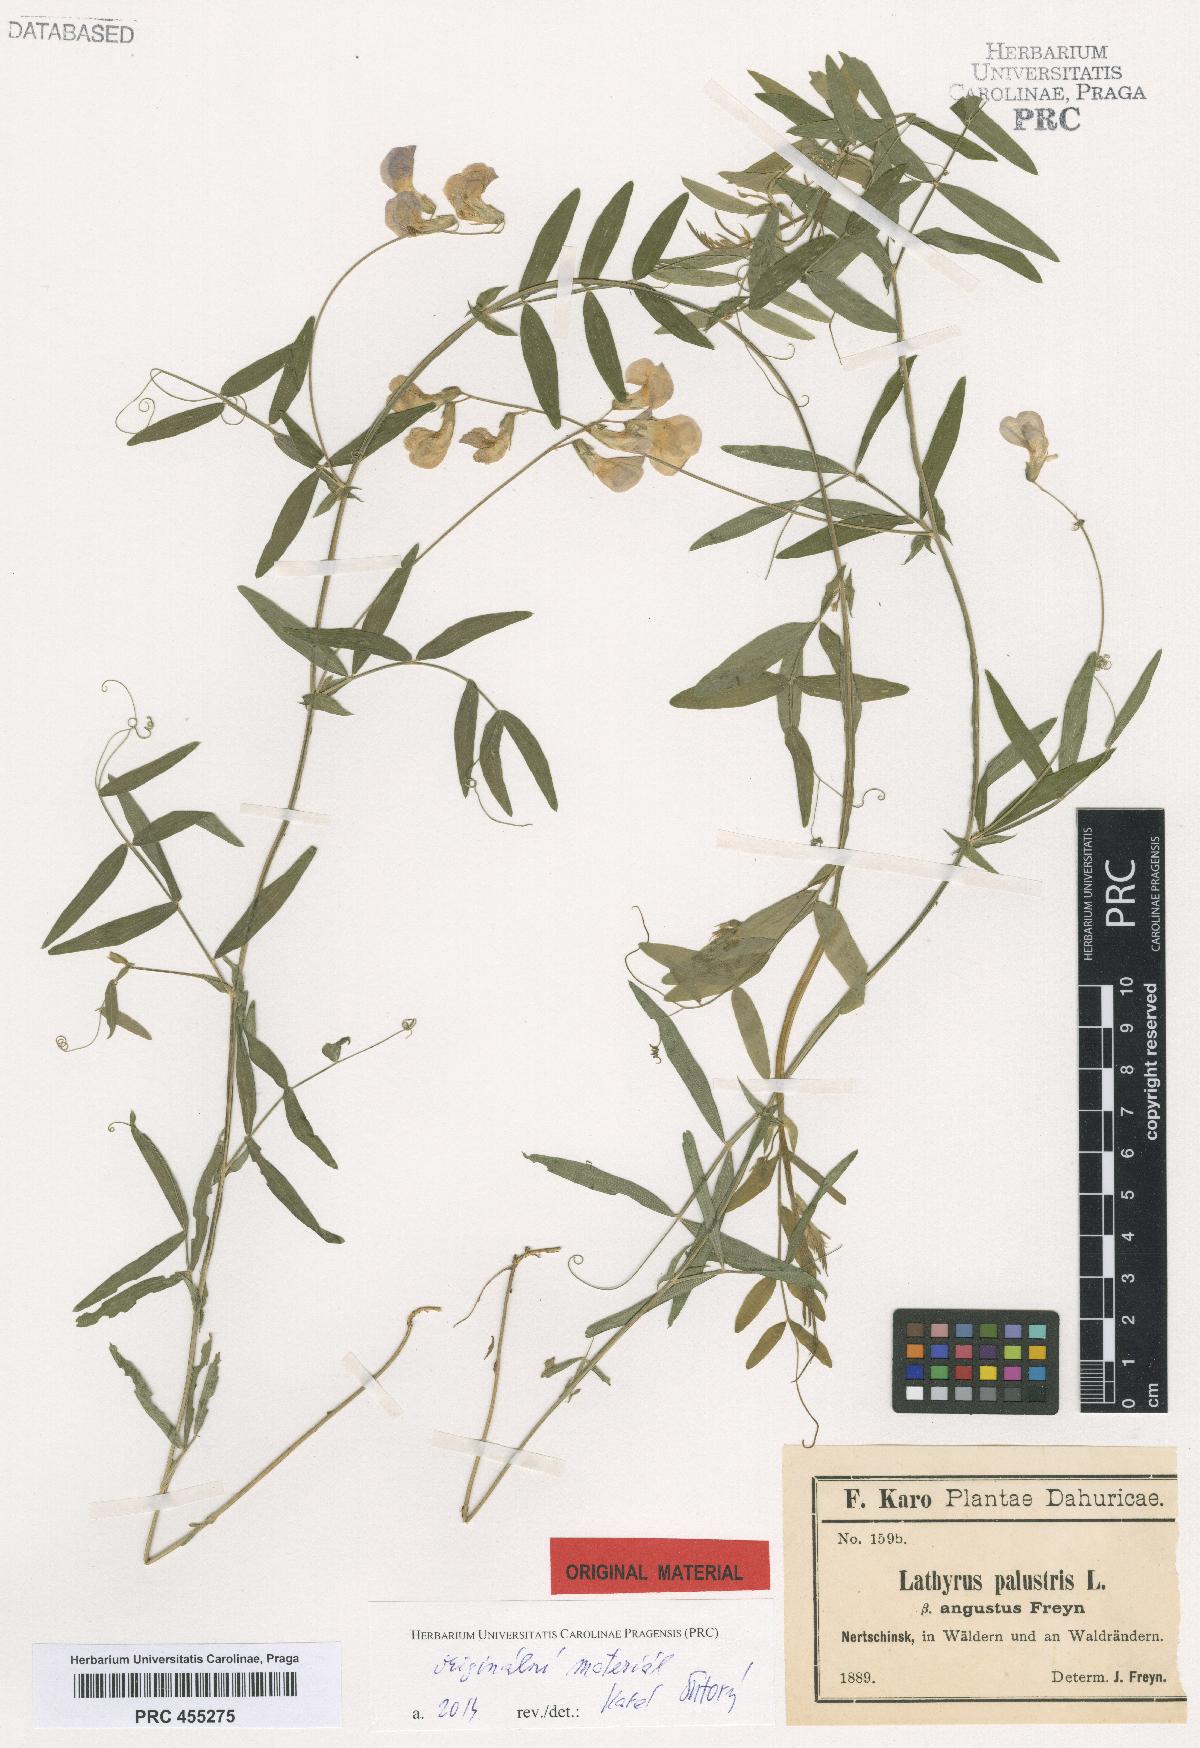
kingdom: Plantae
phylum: Tracheophyta
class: Magnoliopsida
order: Fabales
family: Fabaceae
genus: Lathyrus
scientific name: Lathyrus palustris
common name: Marsh pea
